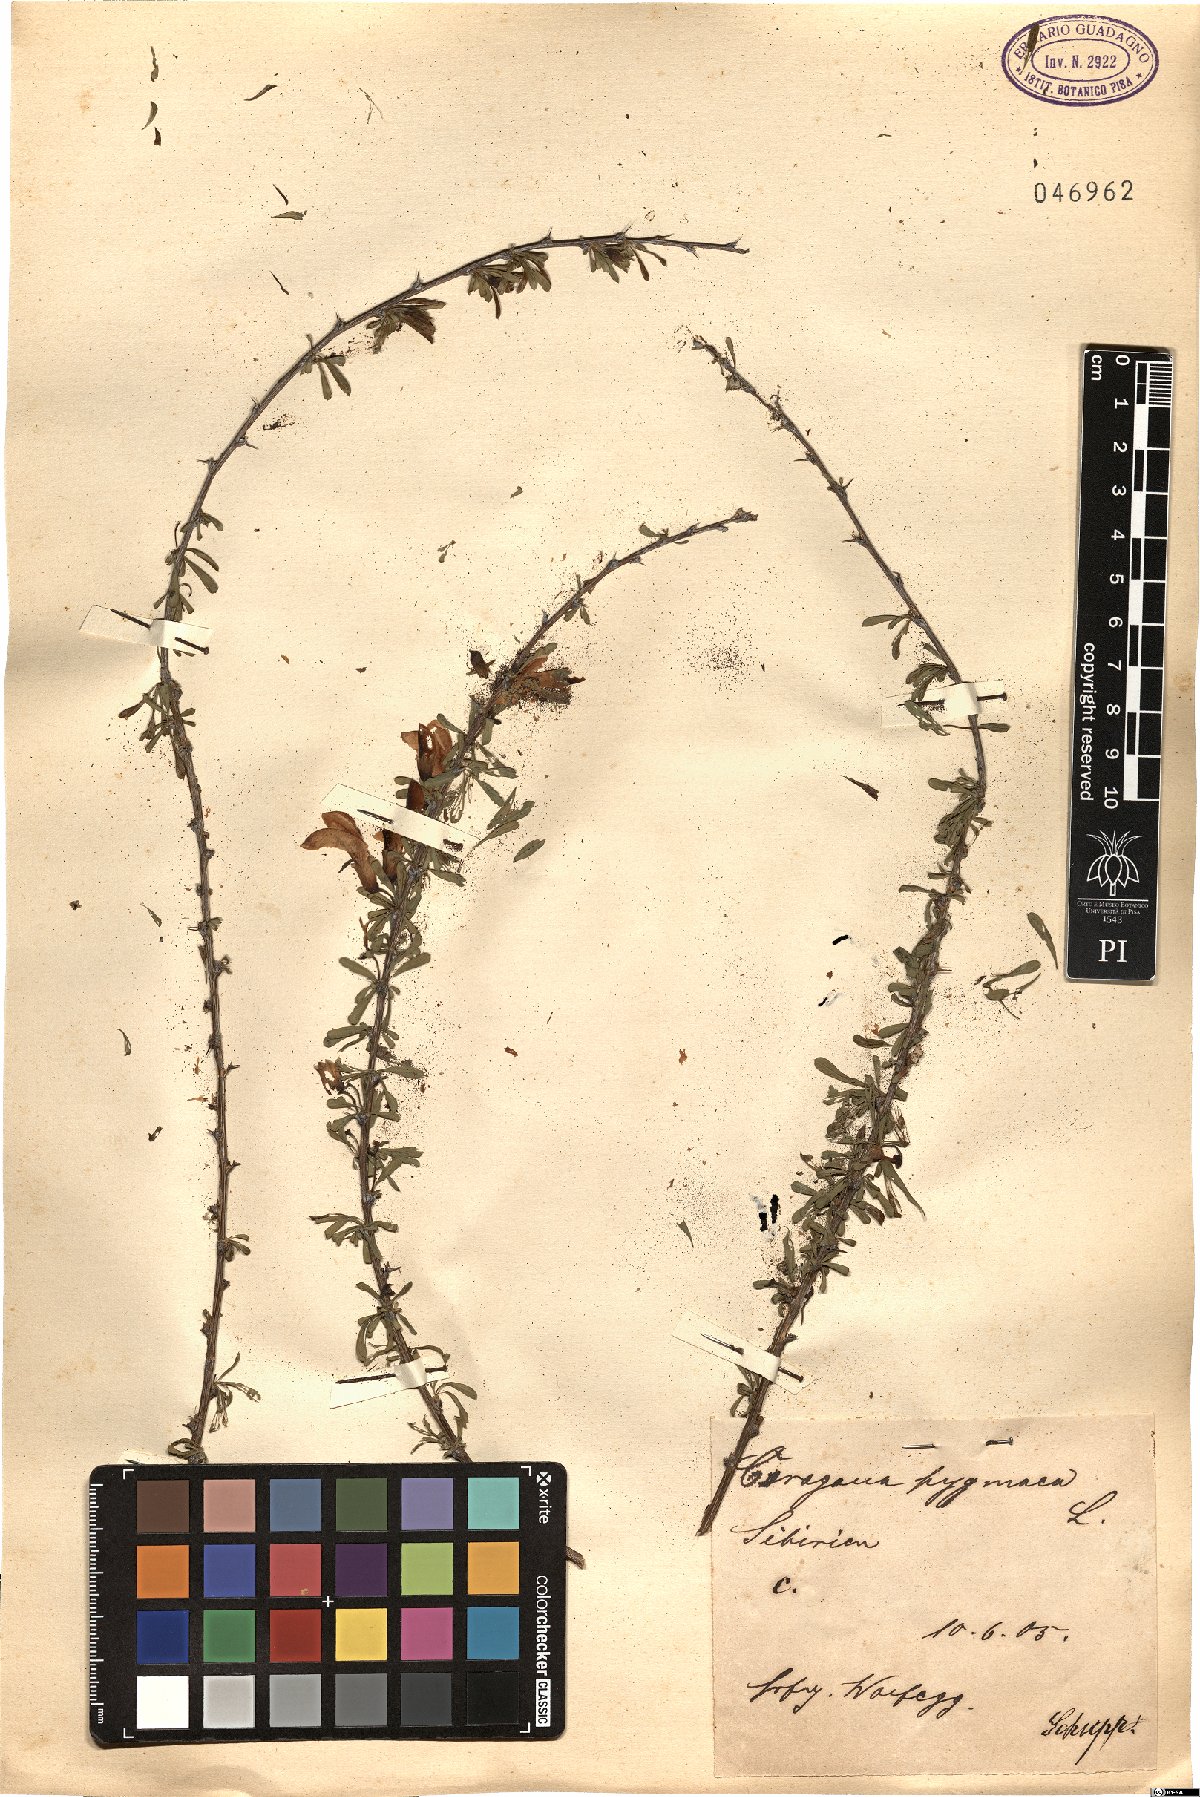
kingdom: Plantae
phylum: Tracheophyta
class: Magnoliopsida
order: Fabales
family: Fabaceae
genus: Caragana
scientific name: Caragana pygmaea
